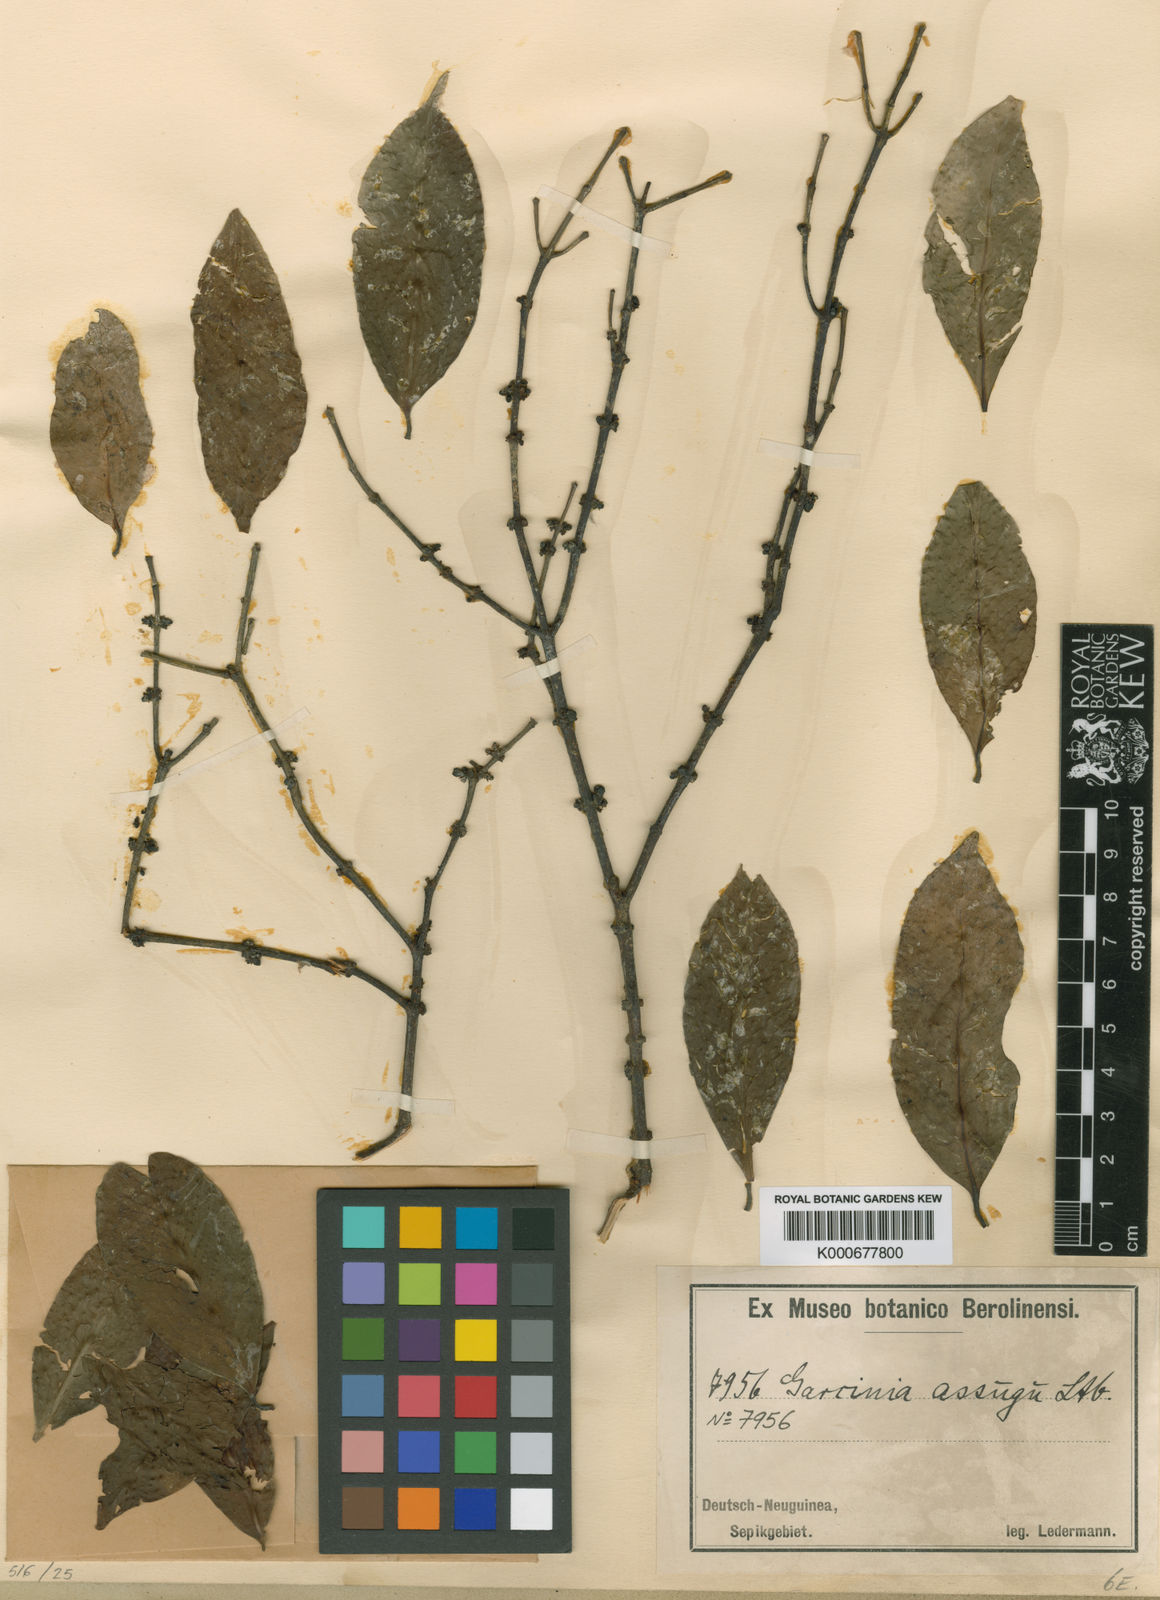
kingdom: Plantae
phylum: Tracheophyta
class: Magnoliopsida
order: Malpighiales
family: Clusiaceae
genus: Garcinia
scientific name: Garcinia assugu
